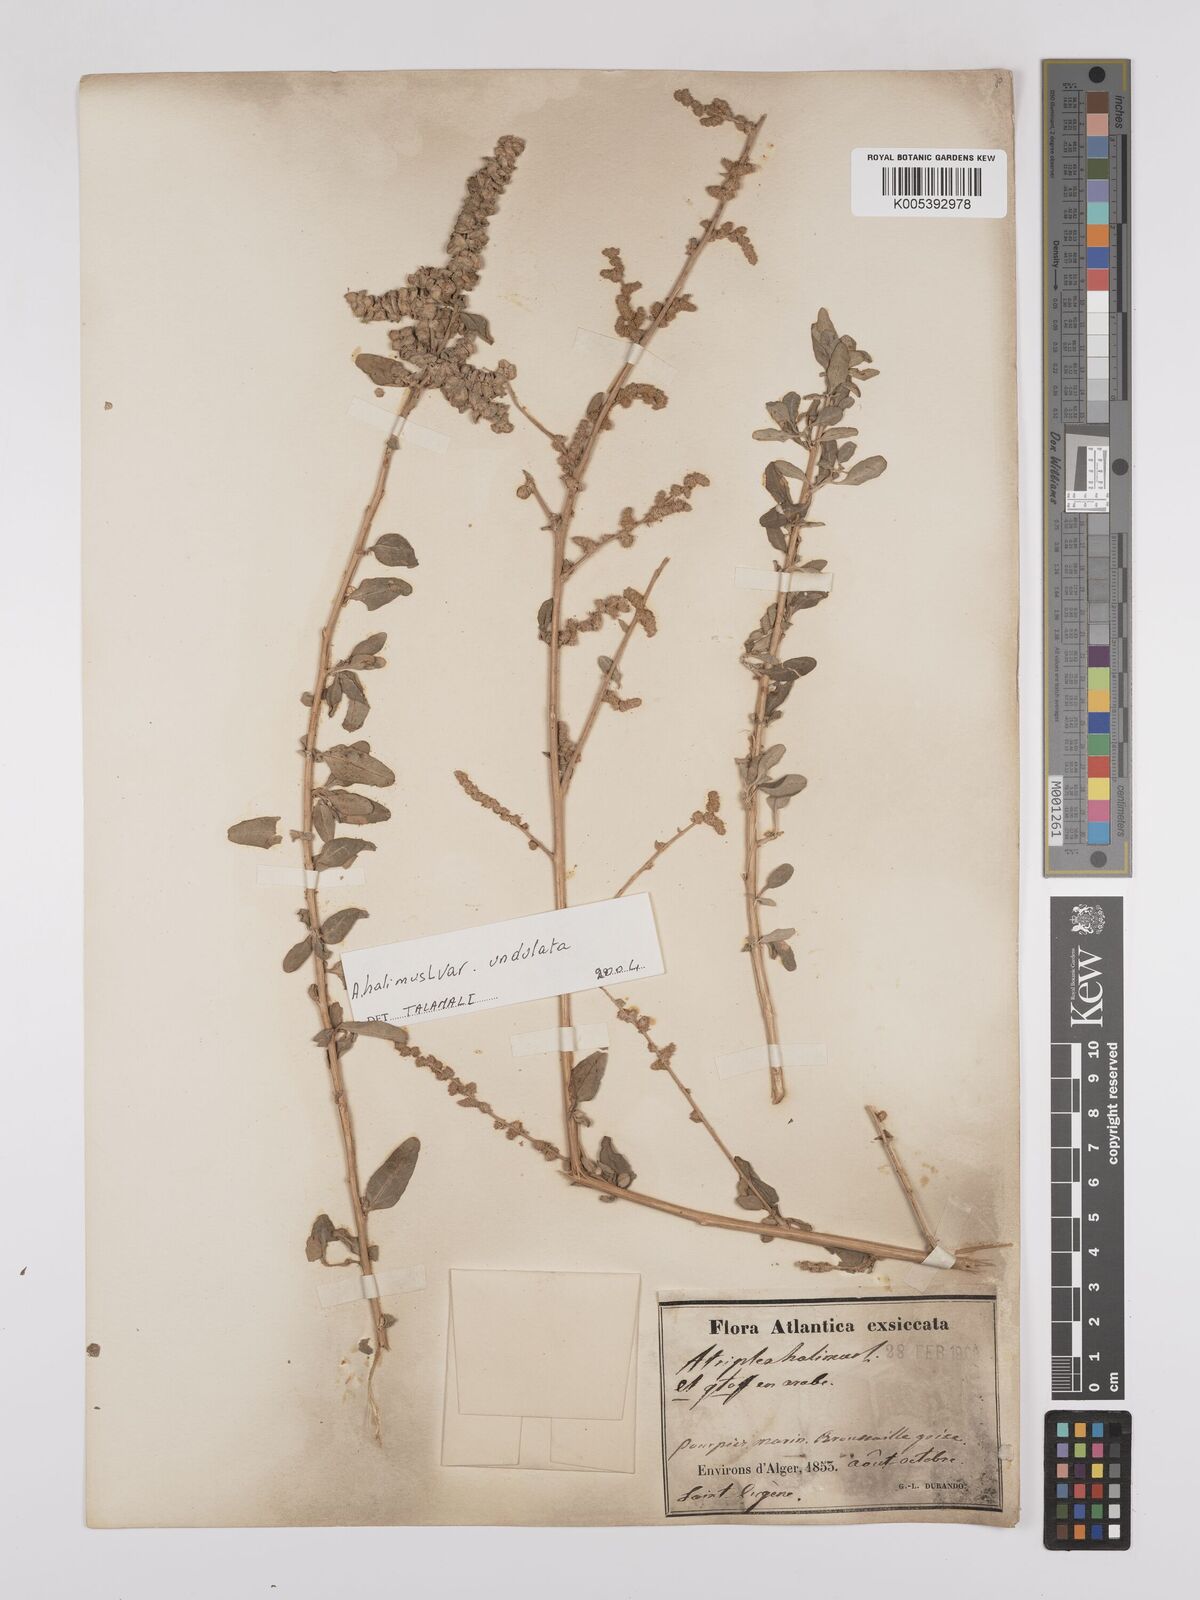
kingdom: Plantae
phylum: Tracheophyta
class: Magnoliopsida
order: Caryophyllales
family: Amaranthaceae
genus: Atriplex
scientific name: Atriplex
